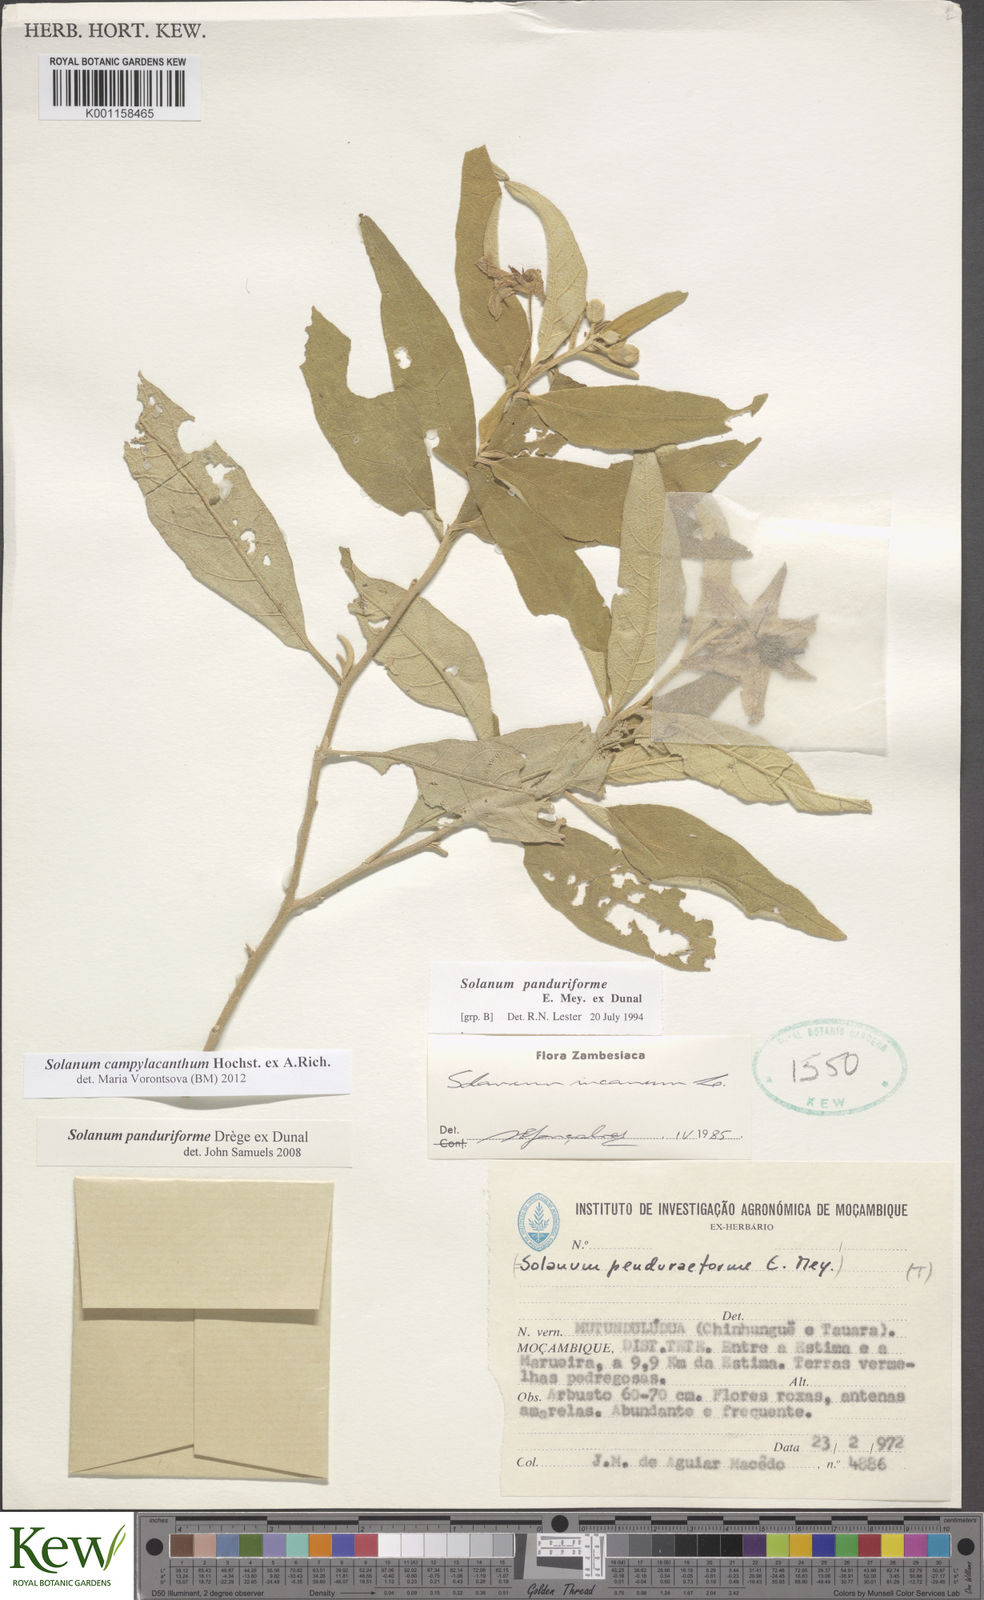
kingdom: Plantae
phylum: Tracheophyta
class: Magnoliopsida
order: Solanales
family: Solanaceae
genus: Solanum
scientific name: Solanum campylacanthum
